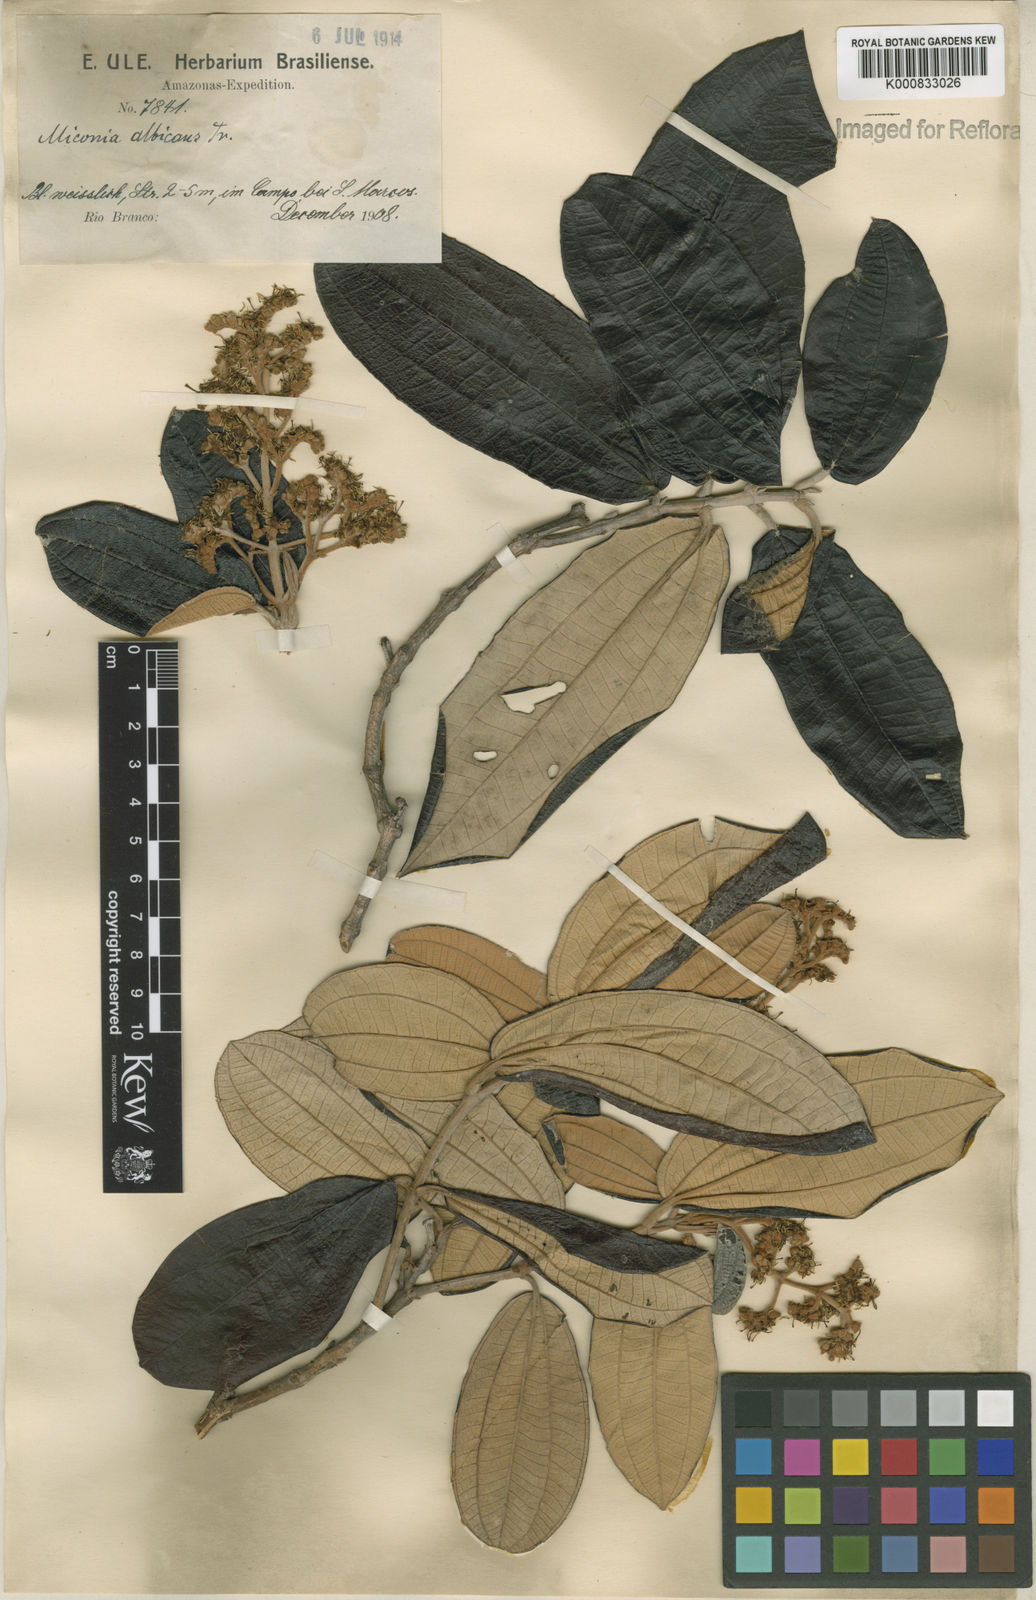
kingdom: Plantae
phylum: Tracheophyta
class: Magnoliopsida
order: Myrtales
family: Melastomataceae
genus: Miconia
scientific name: Miconia albicans
